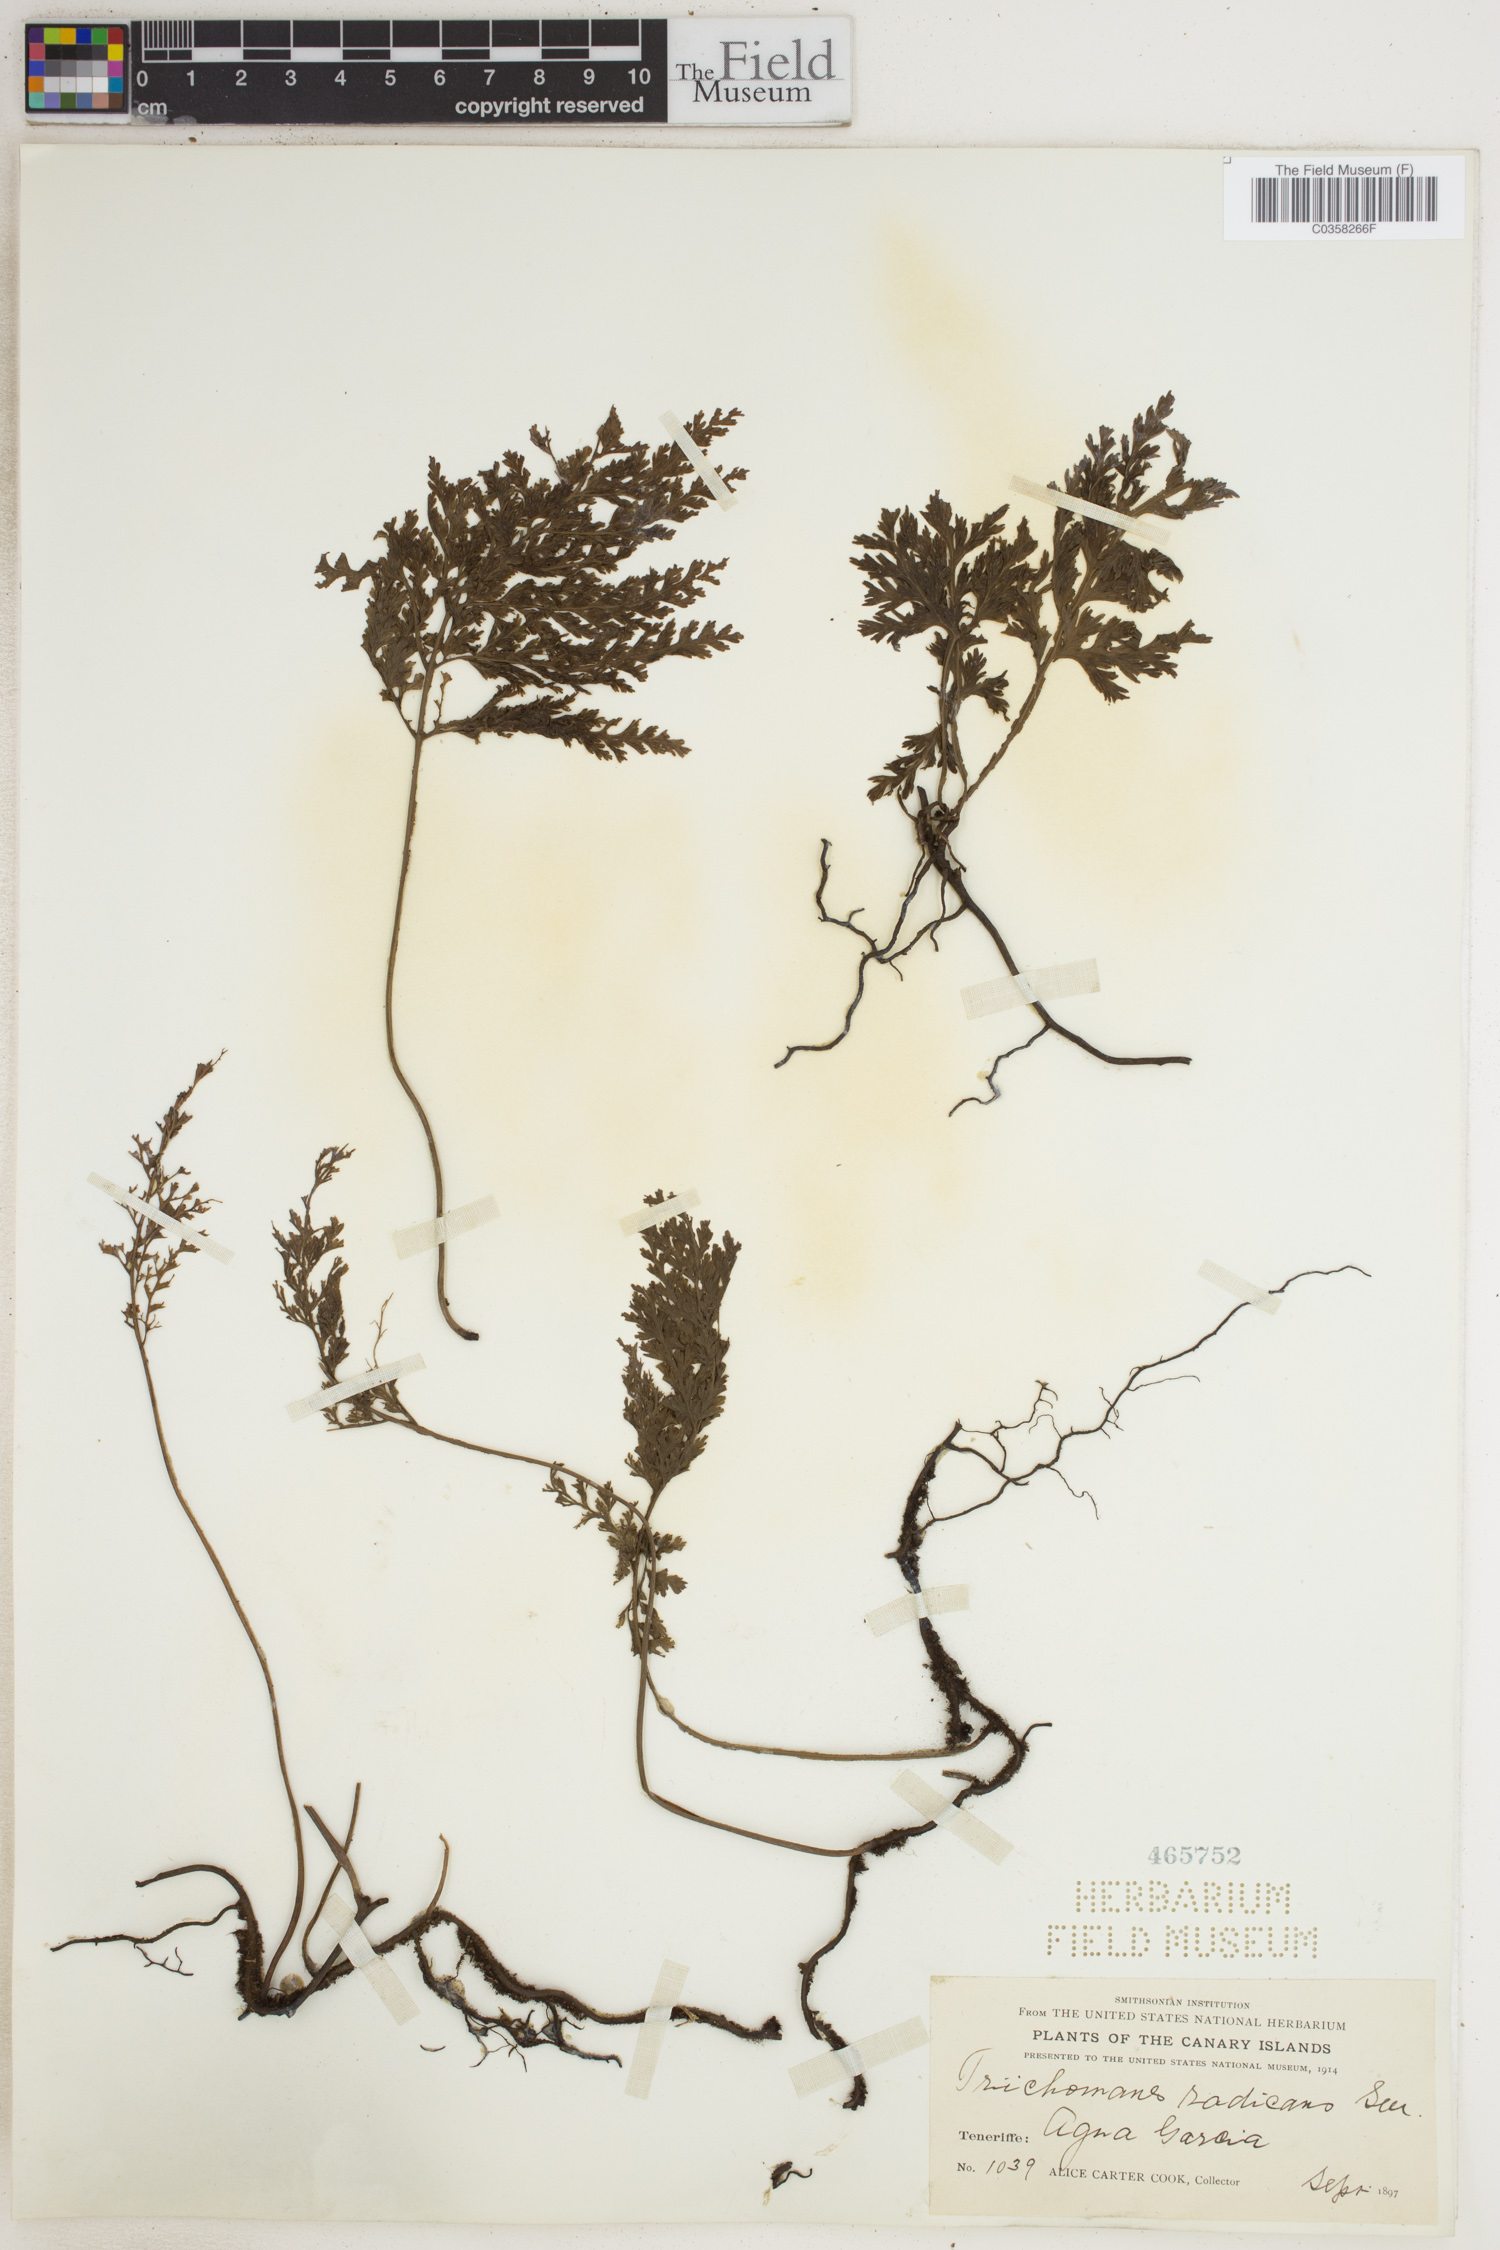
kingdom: Plantae
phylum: Tracheophyta
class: Polypodiopsida
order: Hymenophyllales
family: Hymenophyllaceae
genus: Vandenboschia
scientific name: Vandenboschia radicans
